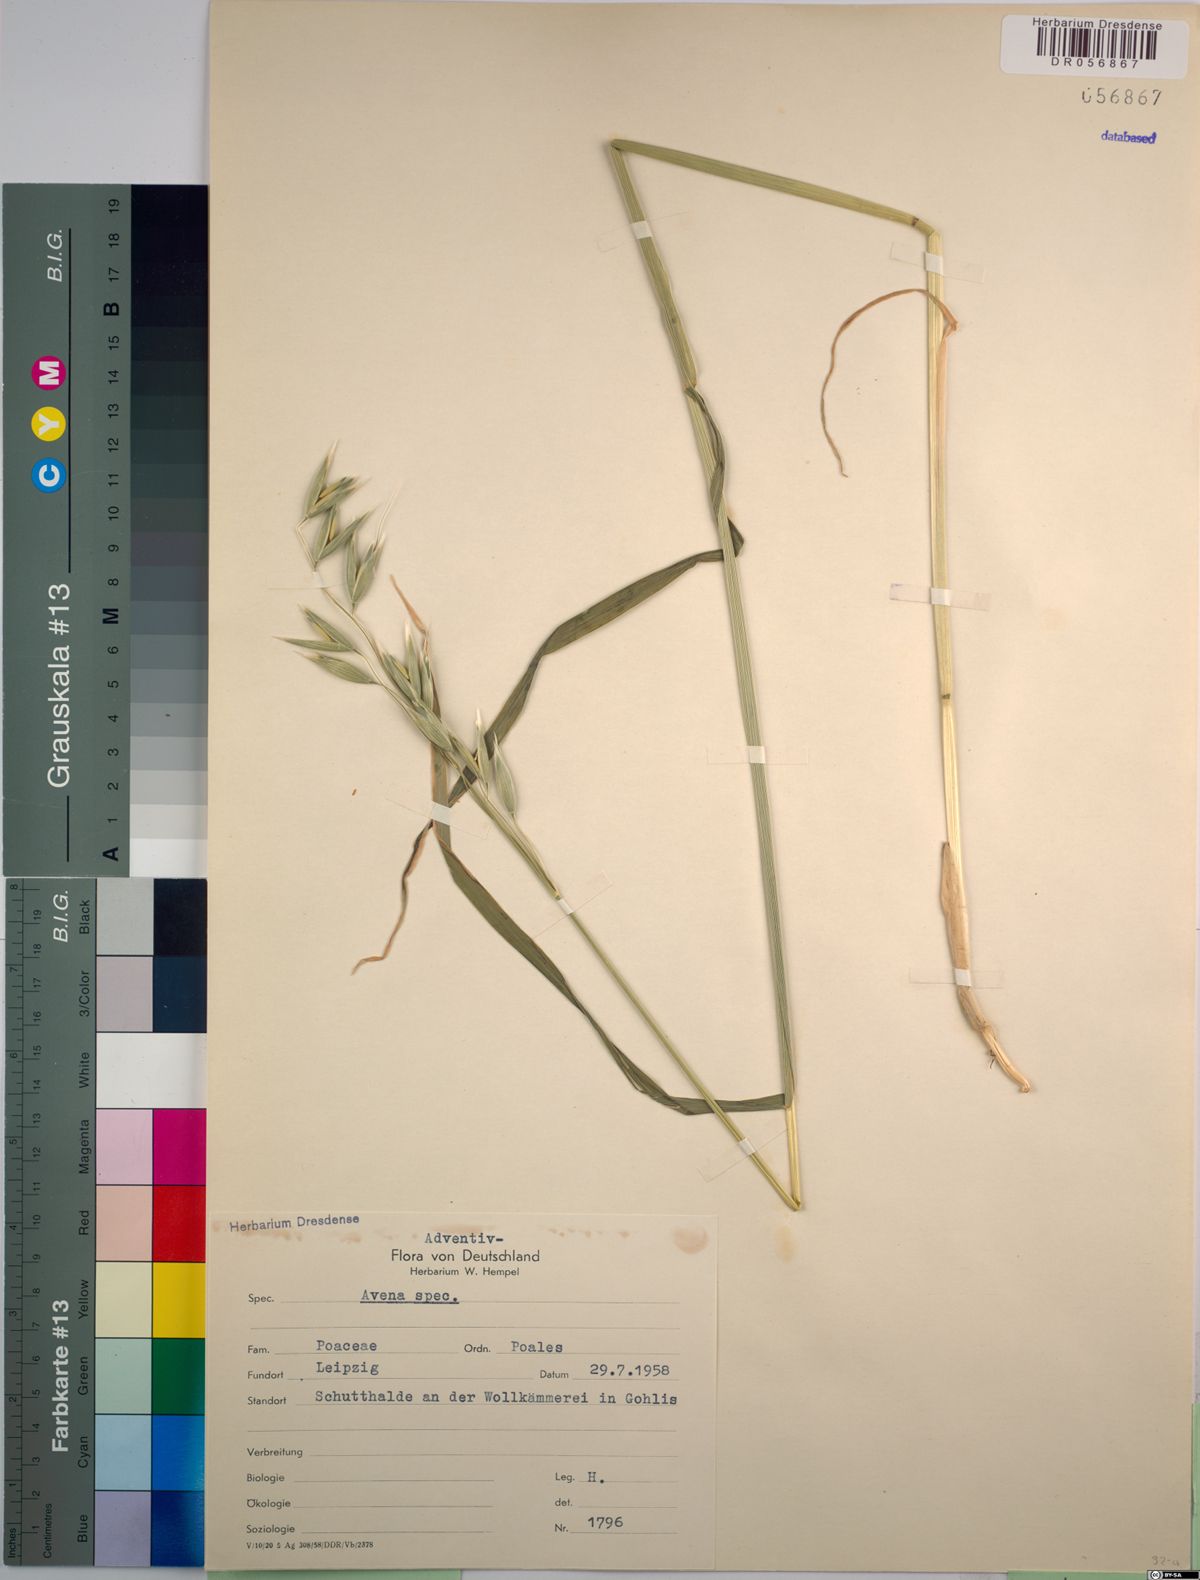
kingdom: Plantae
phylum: Tracheophyta
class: Liliopsida
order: Poales
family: Poaceae
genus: Avena
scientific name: Avena
